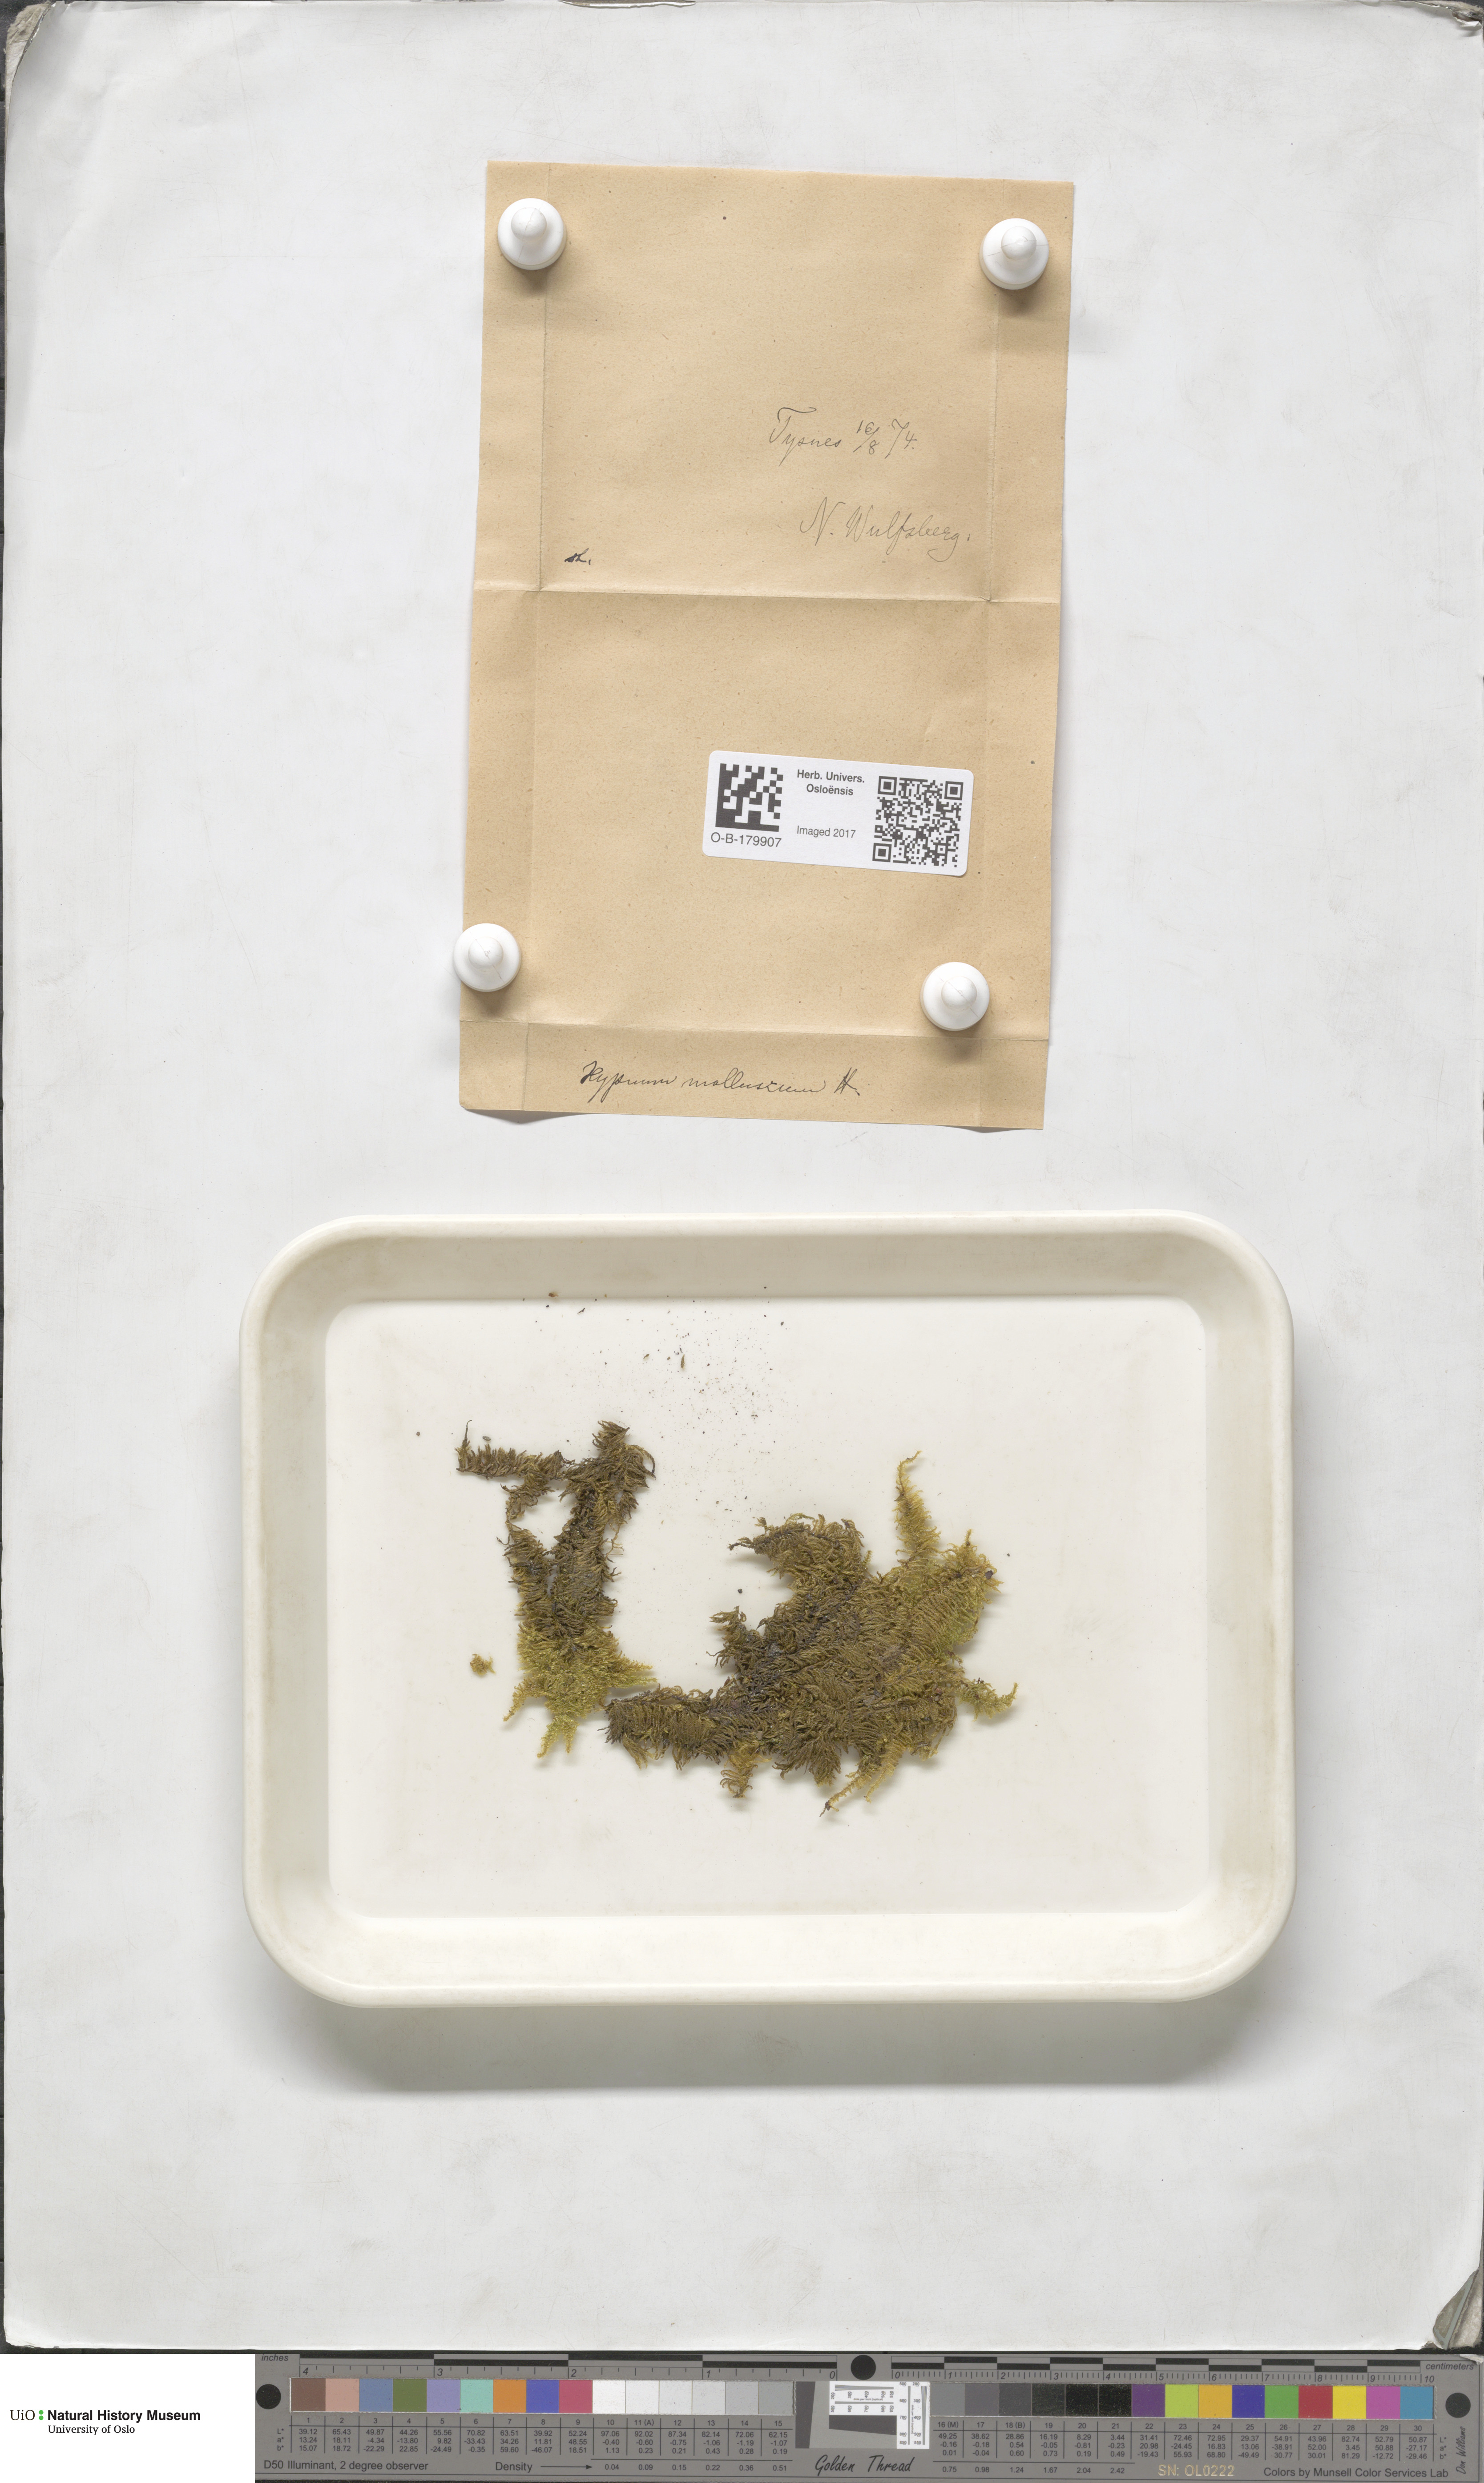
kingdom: Plantae
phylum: Bryophyta
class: Bryopsida
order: Hypnales
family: Myuriaceae
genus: Ctenidium
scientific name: Ctenidium molluscum
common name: Chalk comb-moss
